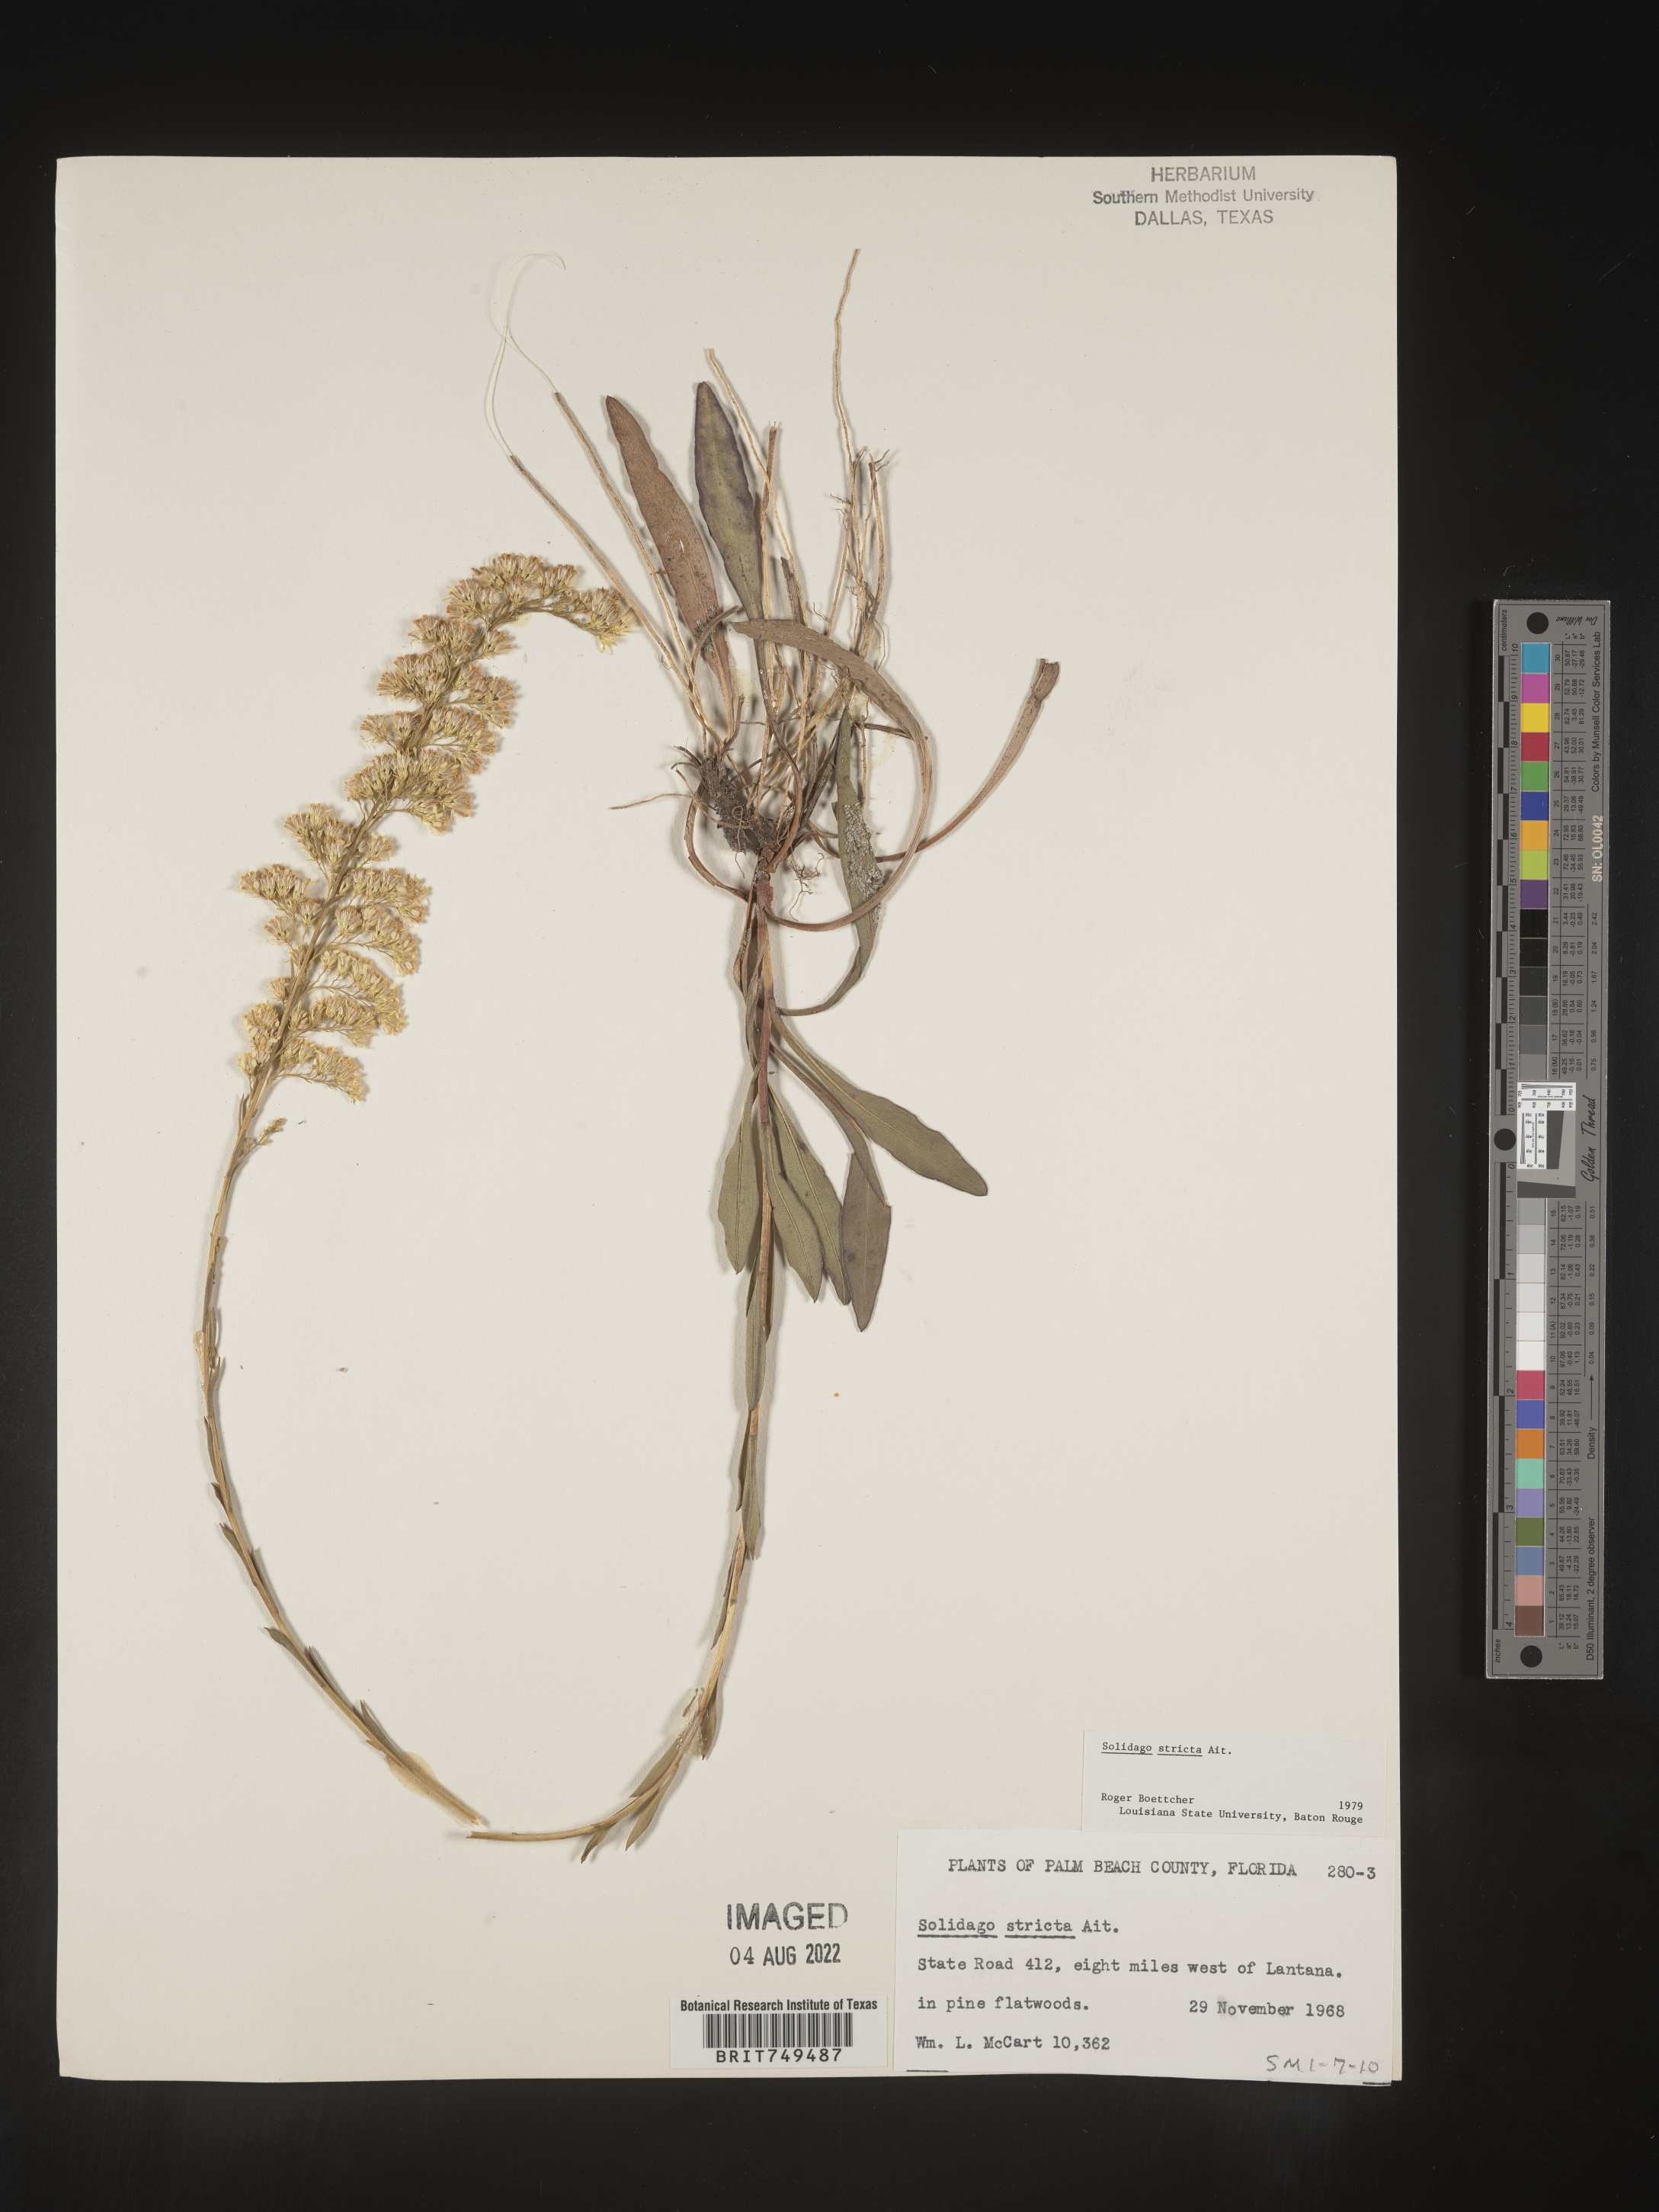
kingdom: Plantae
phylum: Tracheophyta
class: Magnoliopsida
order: Asterales
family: Asteraceae
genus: Solidago
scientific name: Solidago stricta
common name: Pine barren bog goldenrod
